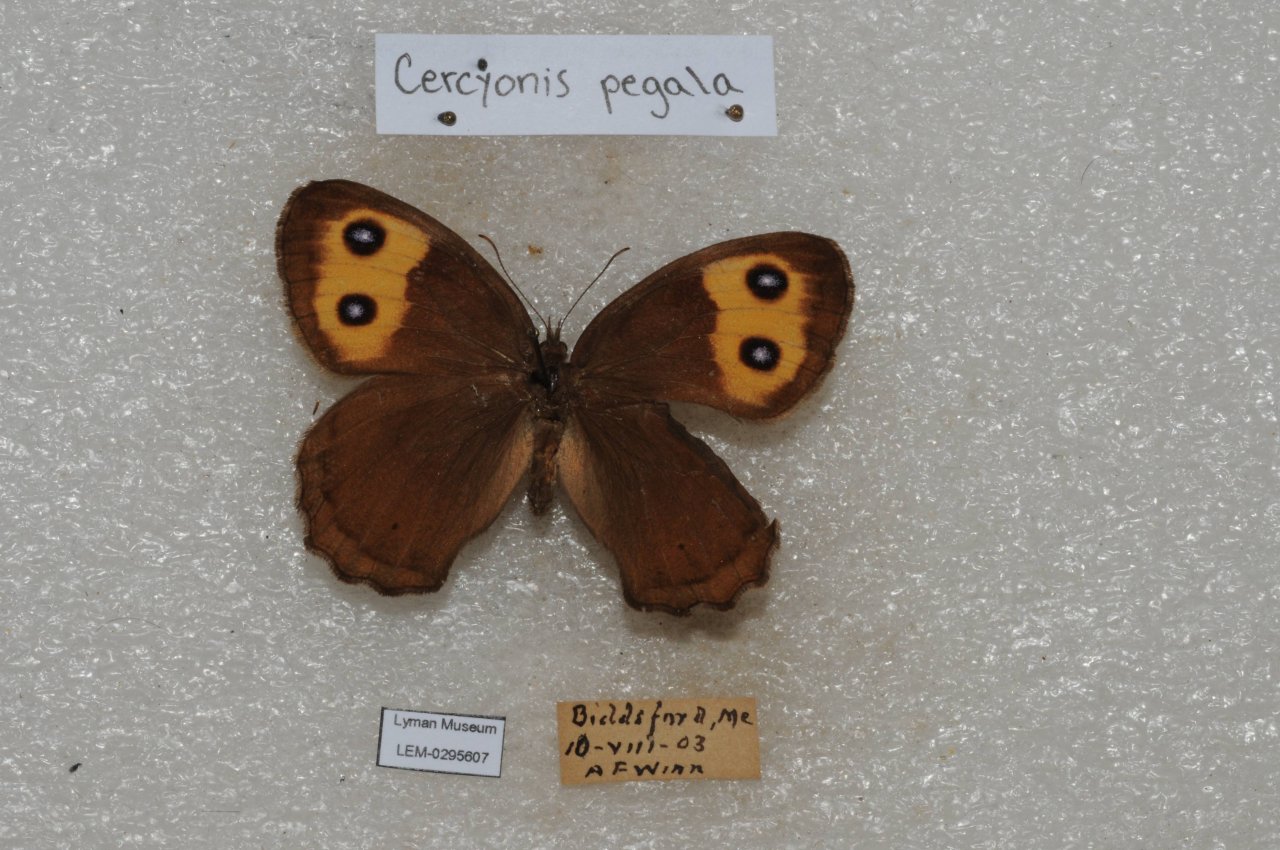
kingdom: Animalia
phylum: Arthropoda
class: Insecta
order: Lepidoptera
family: Nymphalidae
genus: Cercyonis
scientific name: Cercyonis pegala
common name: Common Wood-Nymph
